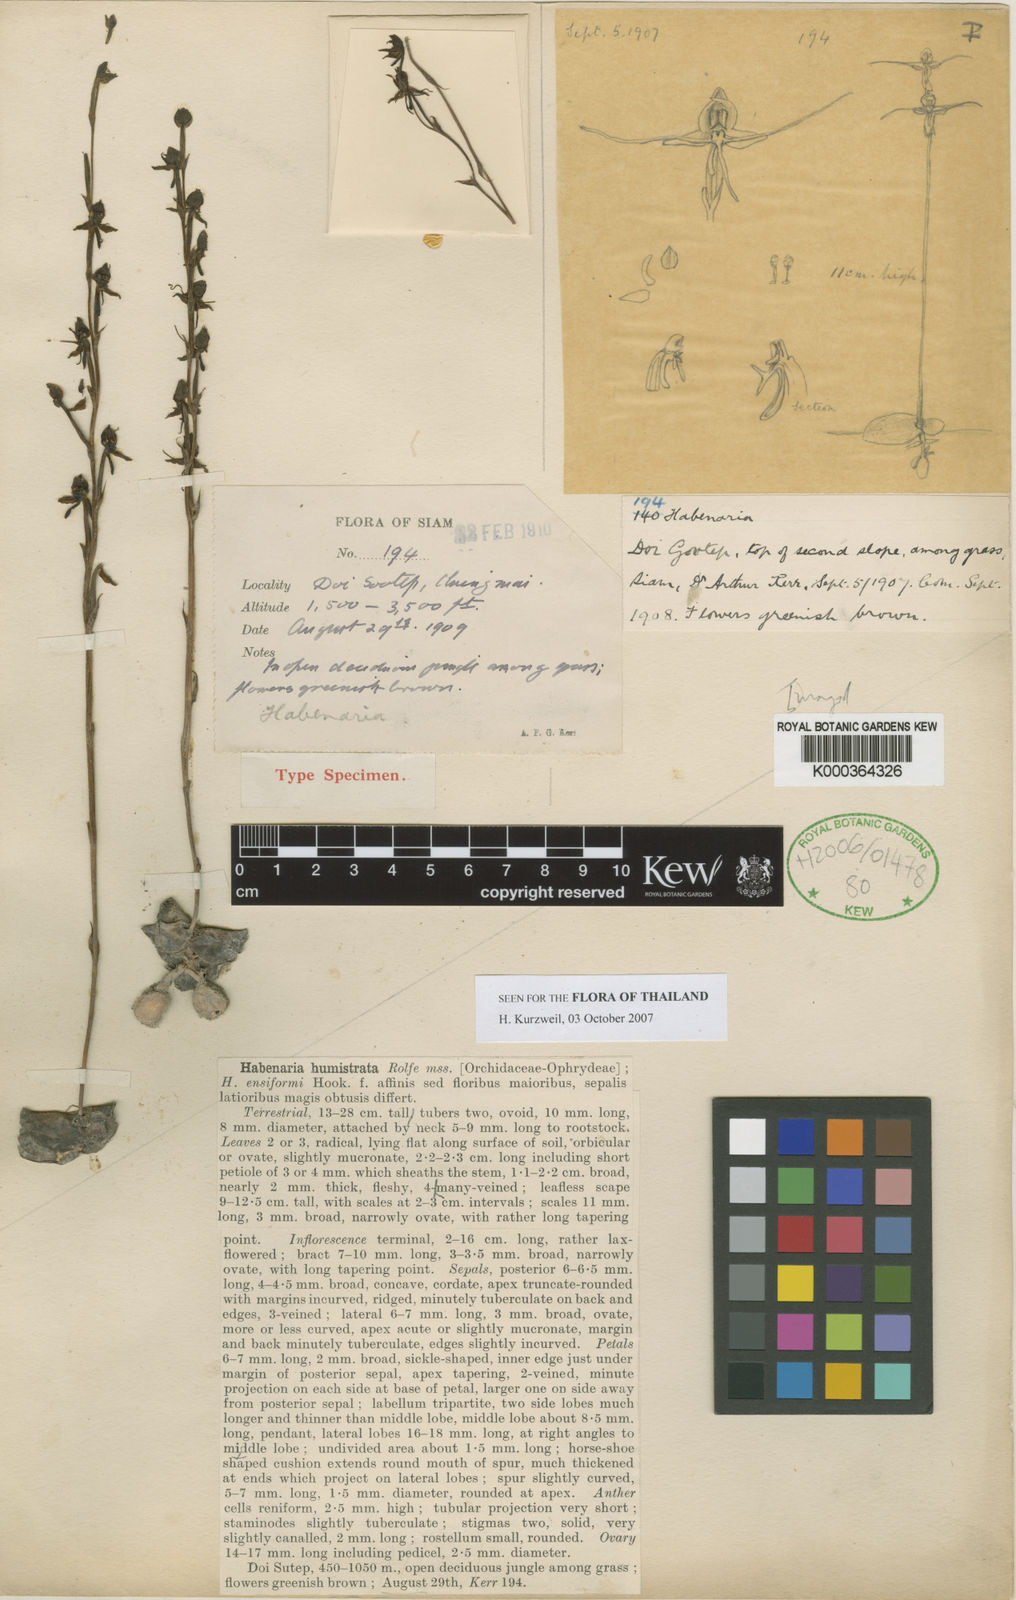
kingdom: Plantae
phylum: Tracheophyta
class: Liliopsida
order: Asparagales
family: Orchidaceae
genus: Habenaria
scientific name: Habenaria diphylla
